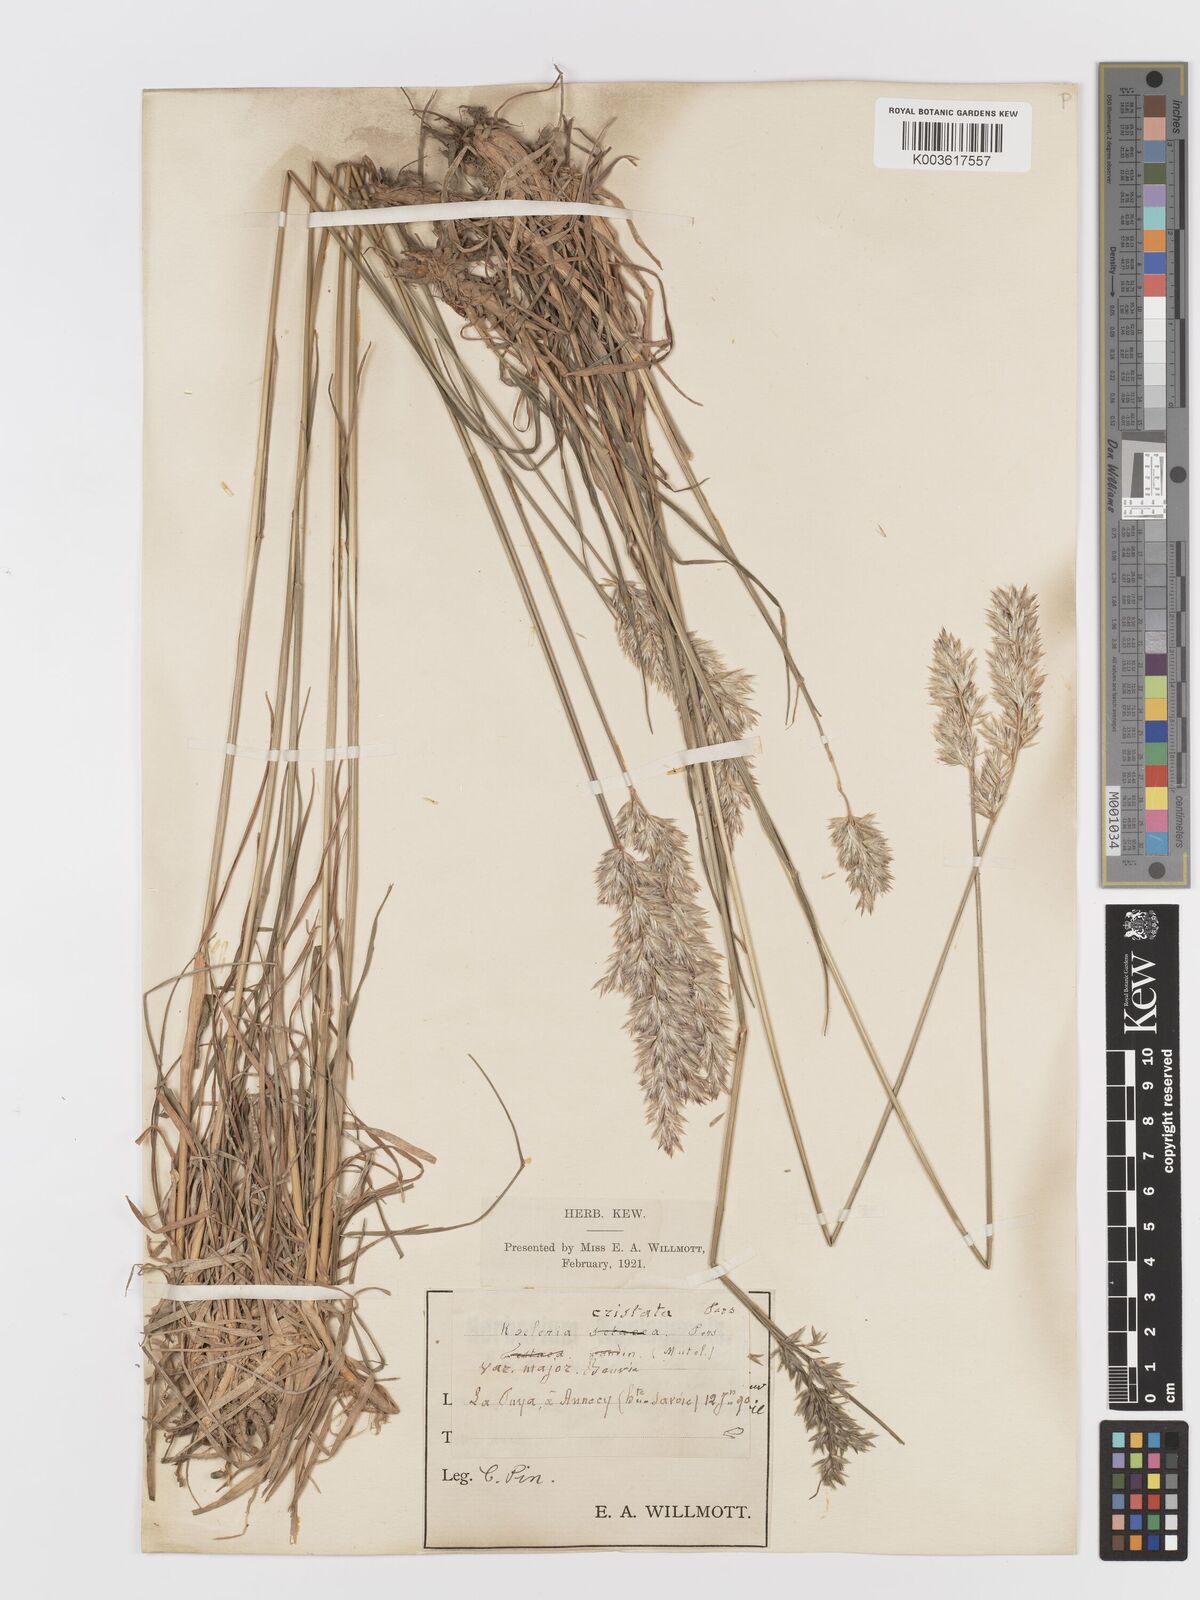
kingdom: Plantae
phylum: Tracheophyta
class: Liliopsida
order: Poales
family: Poaceae
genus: Koeleria
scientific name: Koeleria
